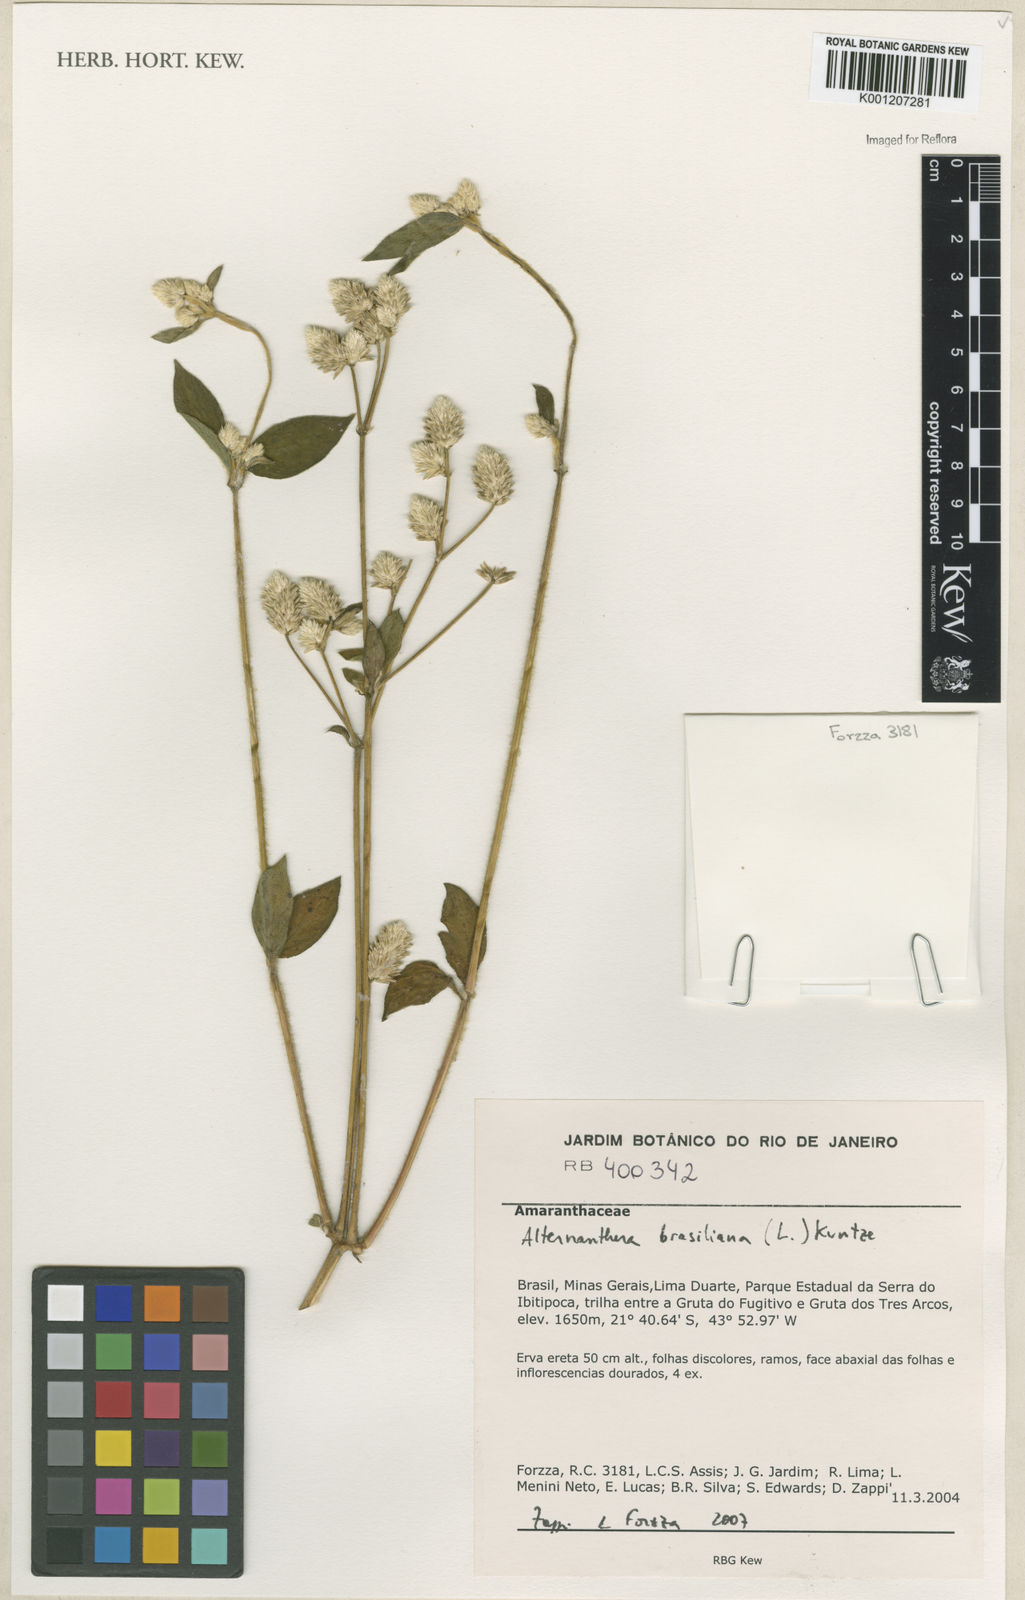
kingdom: Plantae
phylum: Tracheophyta
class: Magnoliopsida
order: Caryophyllales
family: Amaranthaceae
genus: Alternanthera
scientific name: Alternanthera brasiliana
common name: Brazilian joyweed
